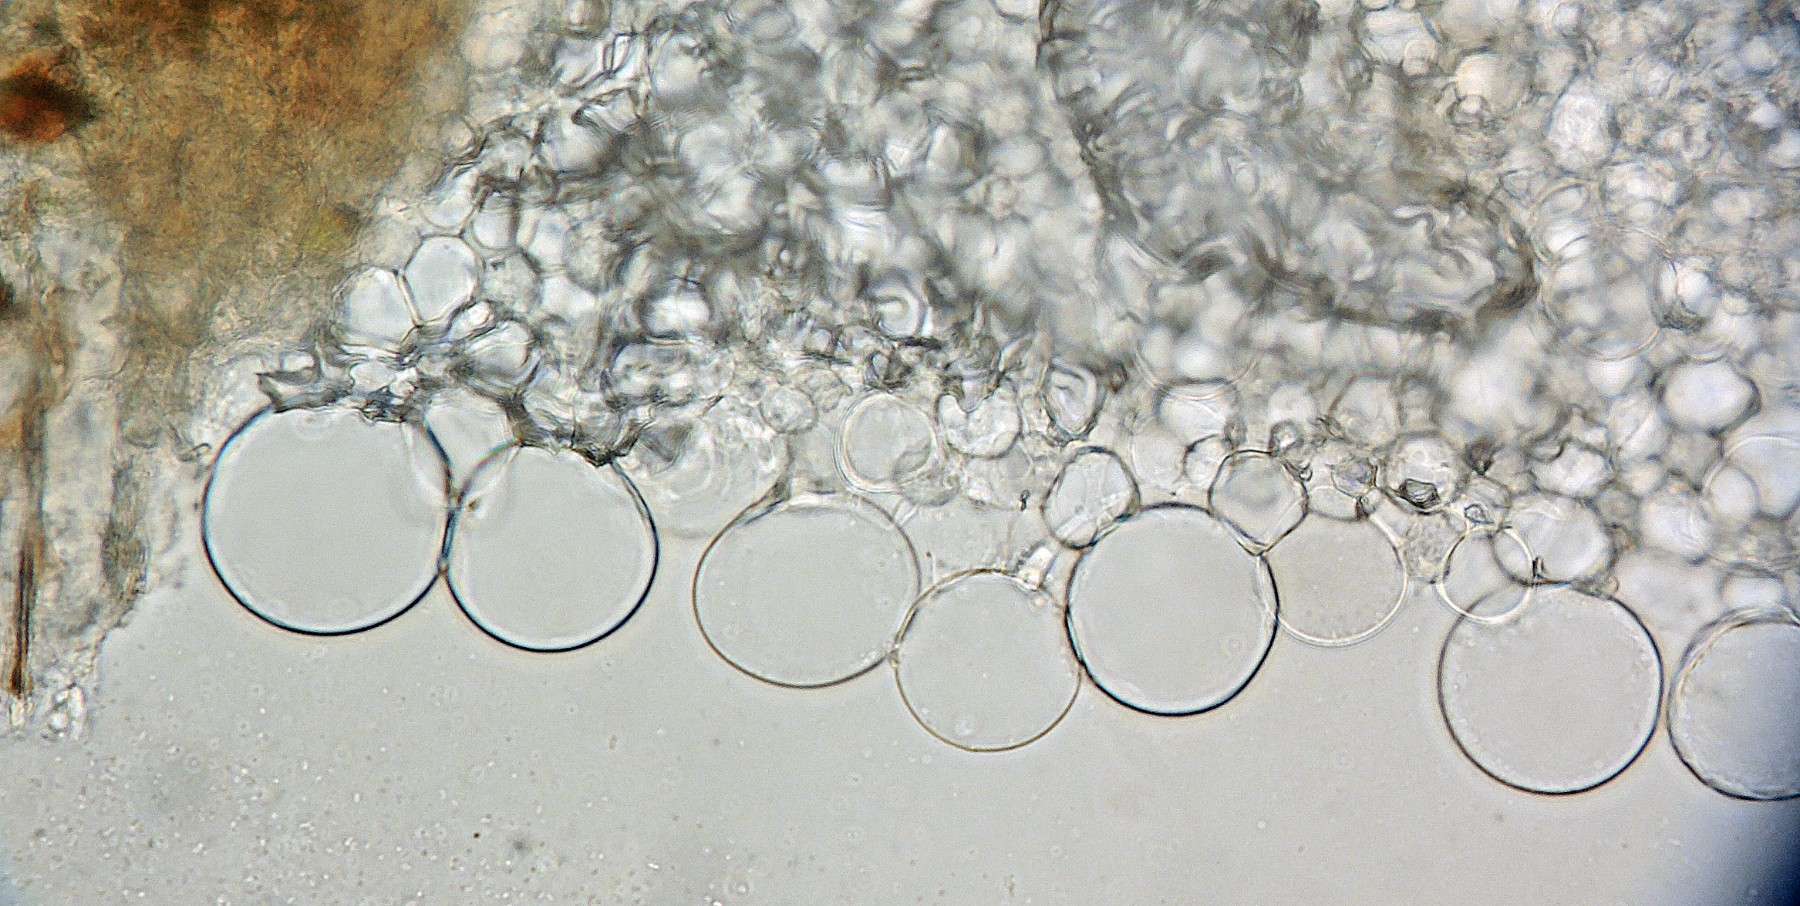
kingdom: Fungi
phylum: Basidiomycota
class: Agaricomycetes
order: Agaricales
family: Psathyrellaceae
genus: Coprinellus
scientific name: Coprinellus heptemerus
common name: hjorte-blækhat
